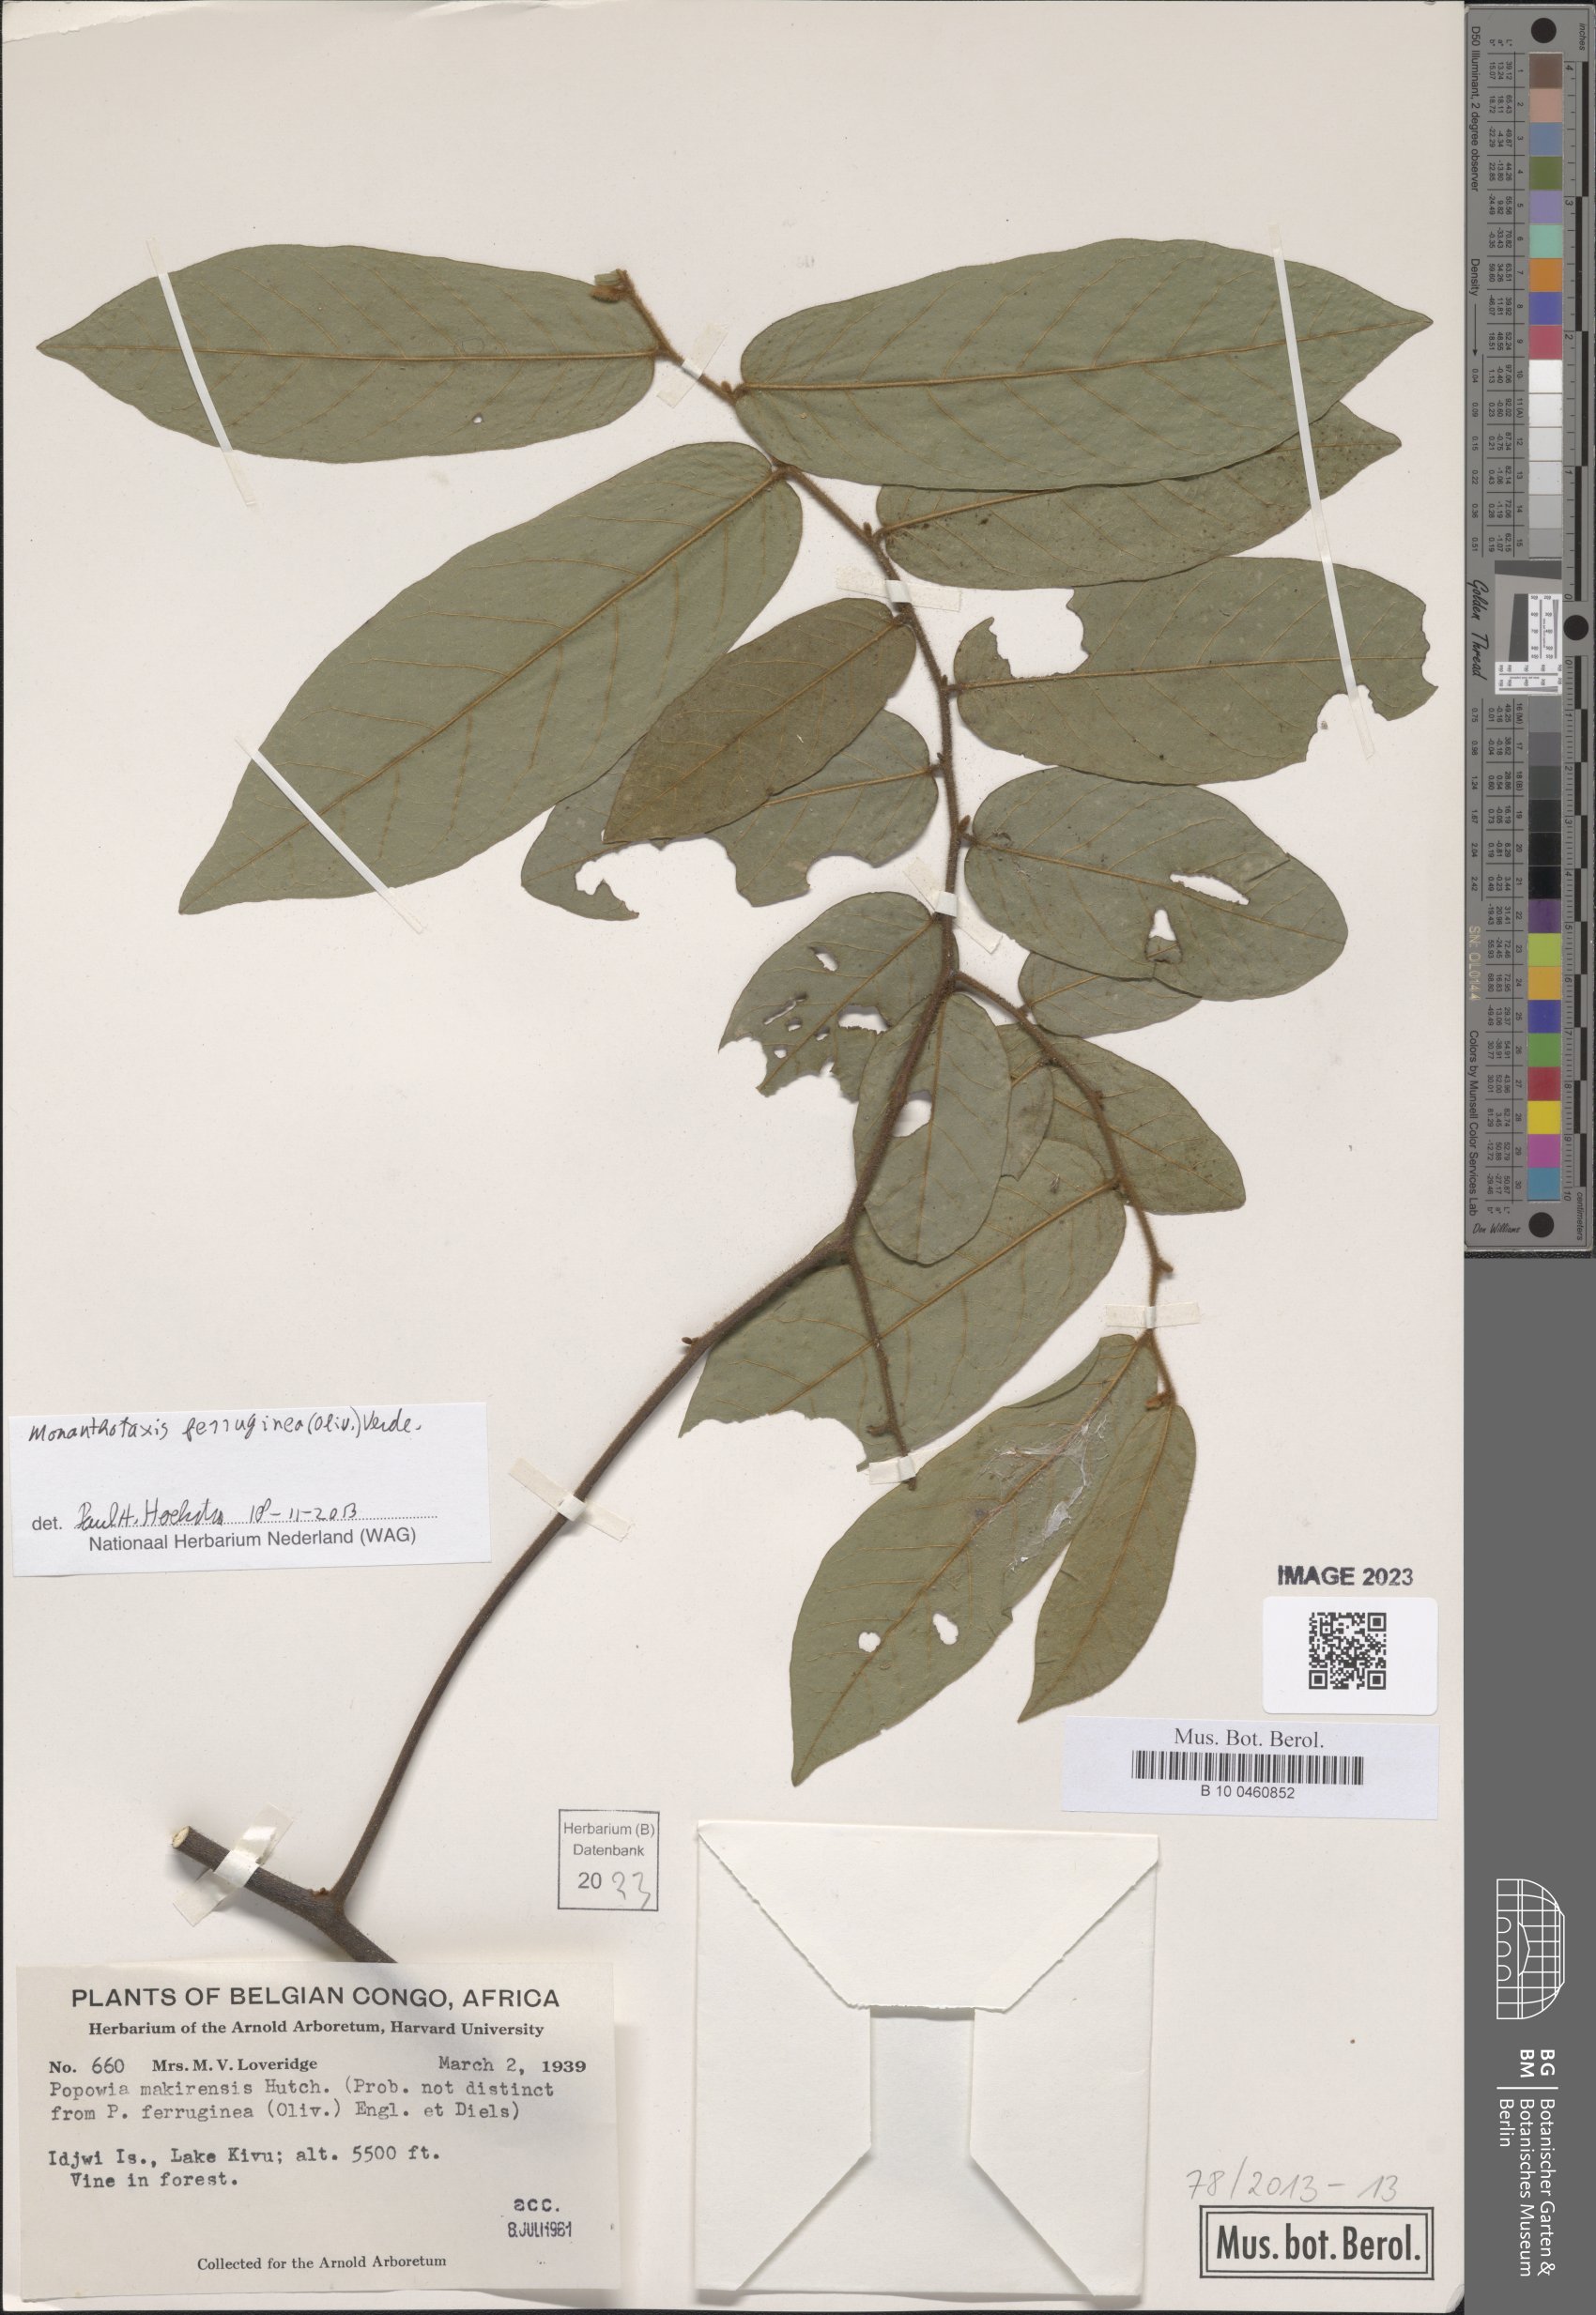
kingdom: Plantae
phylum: Tracheophyta
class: Magnoliopsida
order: Magnoliales
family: Annonaceae
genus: Monanthotaxis
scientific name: Monanthotaxis ferruginea
